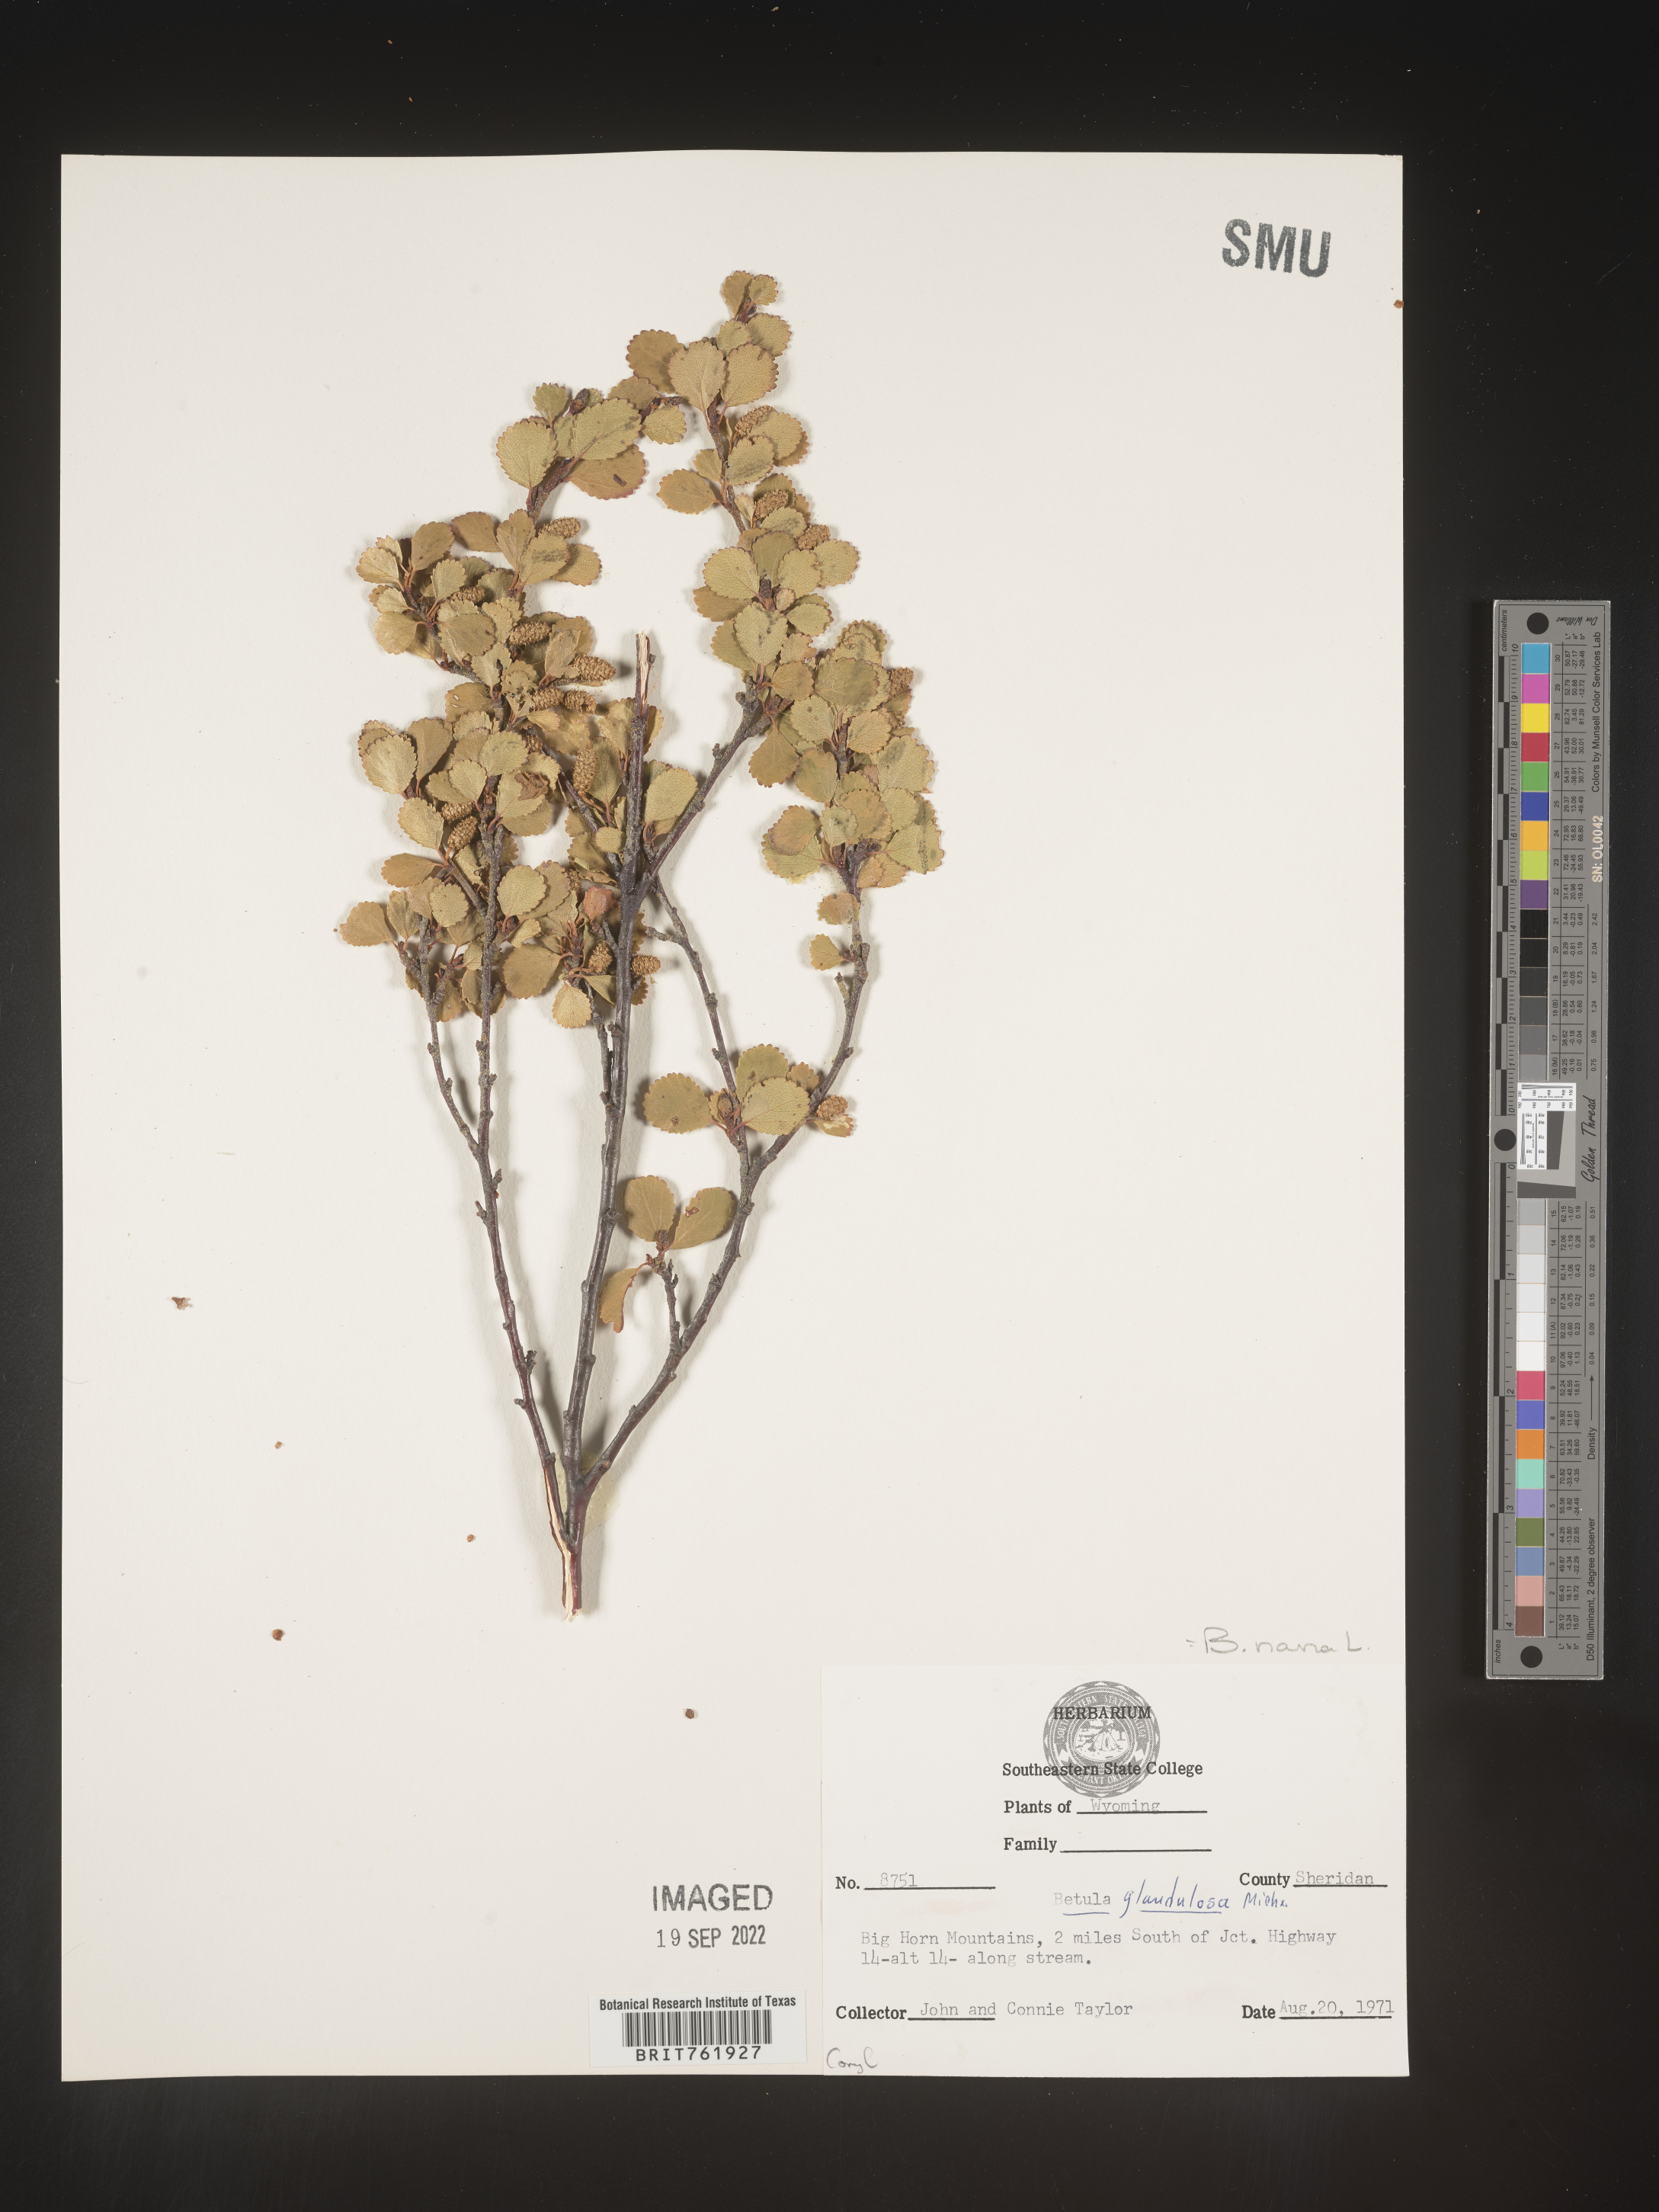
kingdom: Plantae
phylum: Tracheophyta
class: Magnoliopsida
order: Fagales
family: Betulaceae
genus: Betula
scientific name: Betula nana
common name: Arctic dwarf birch
